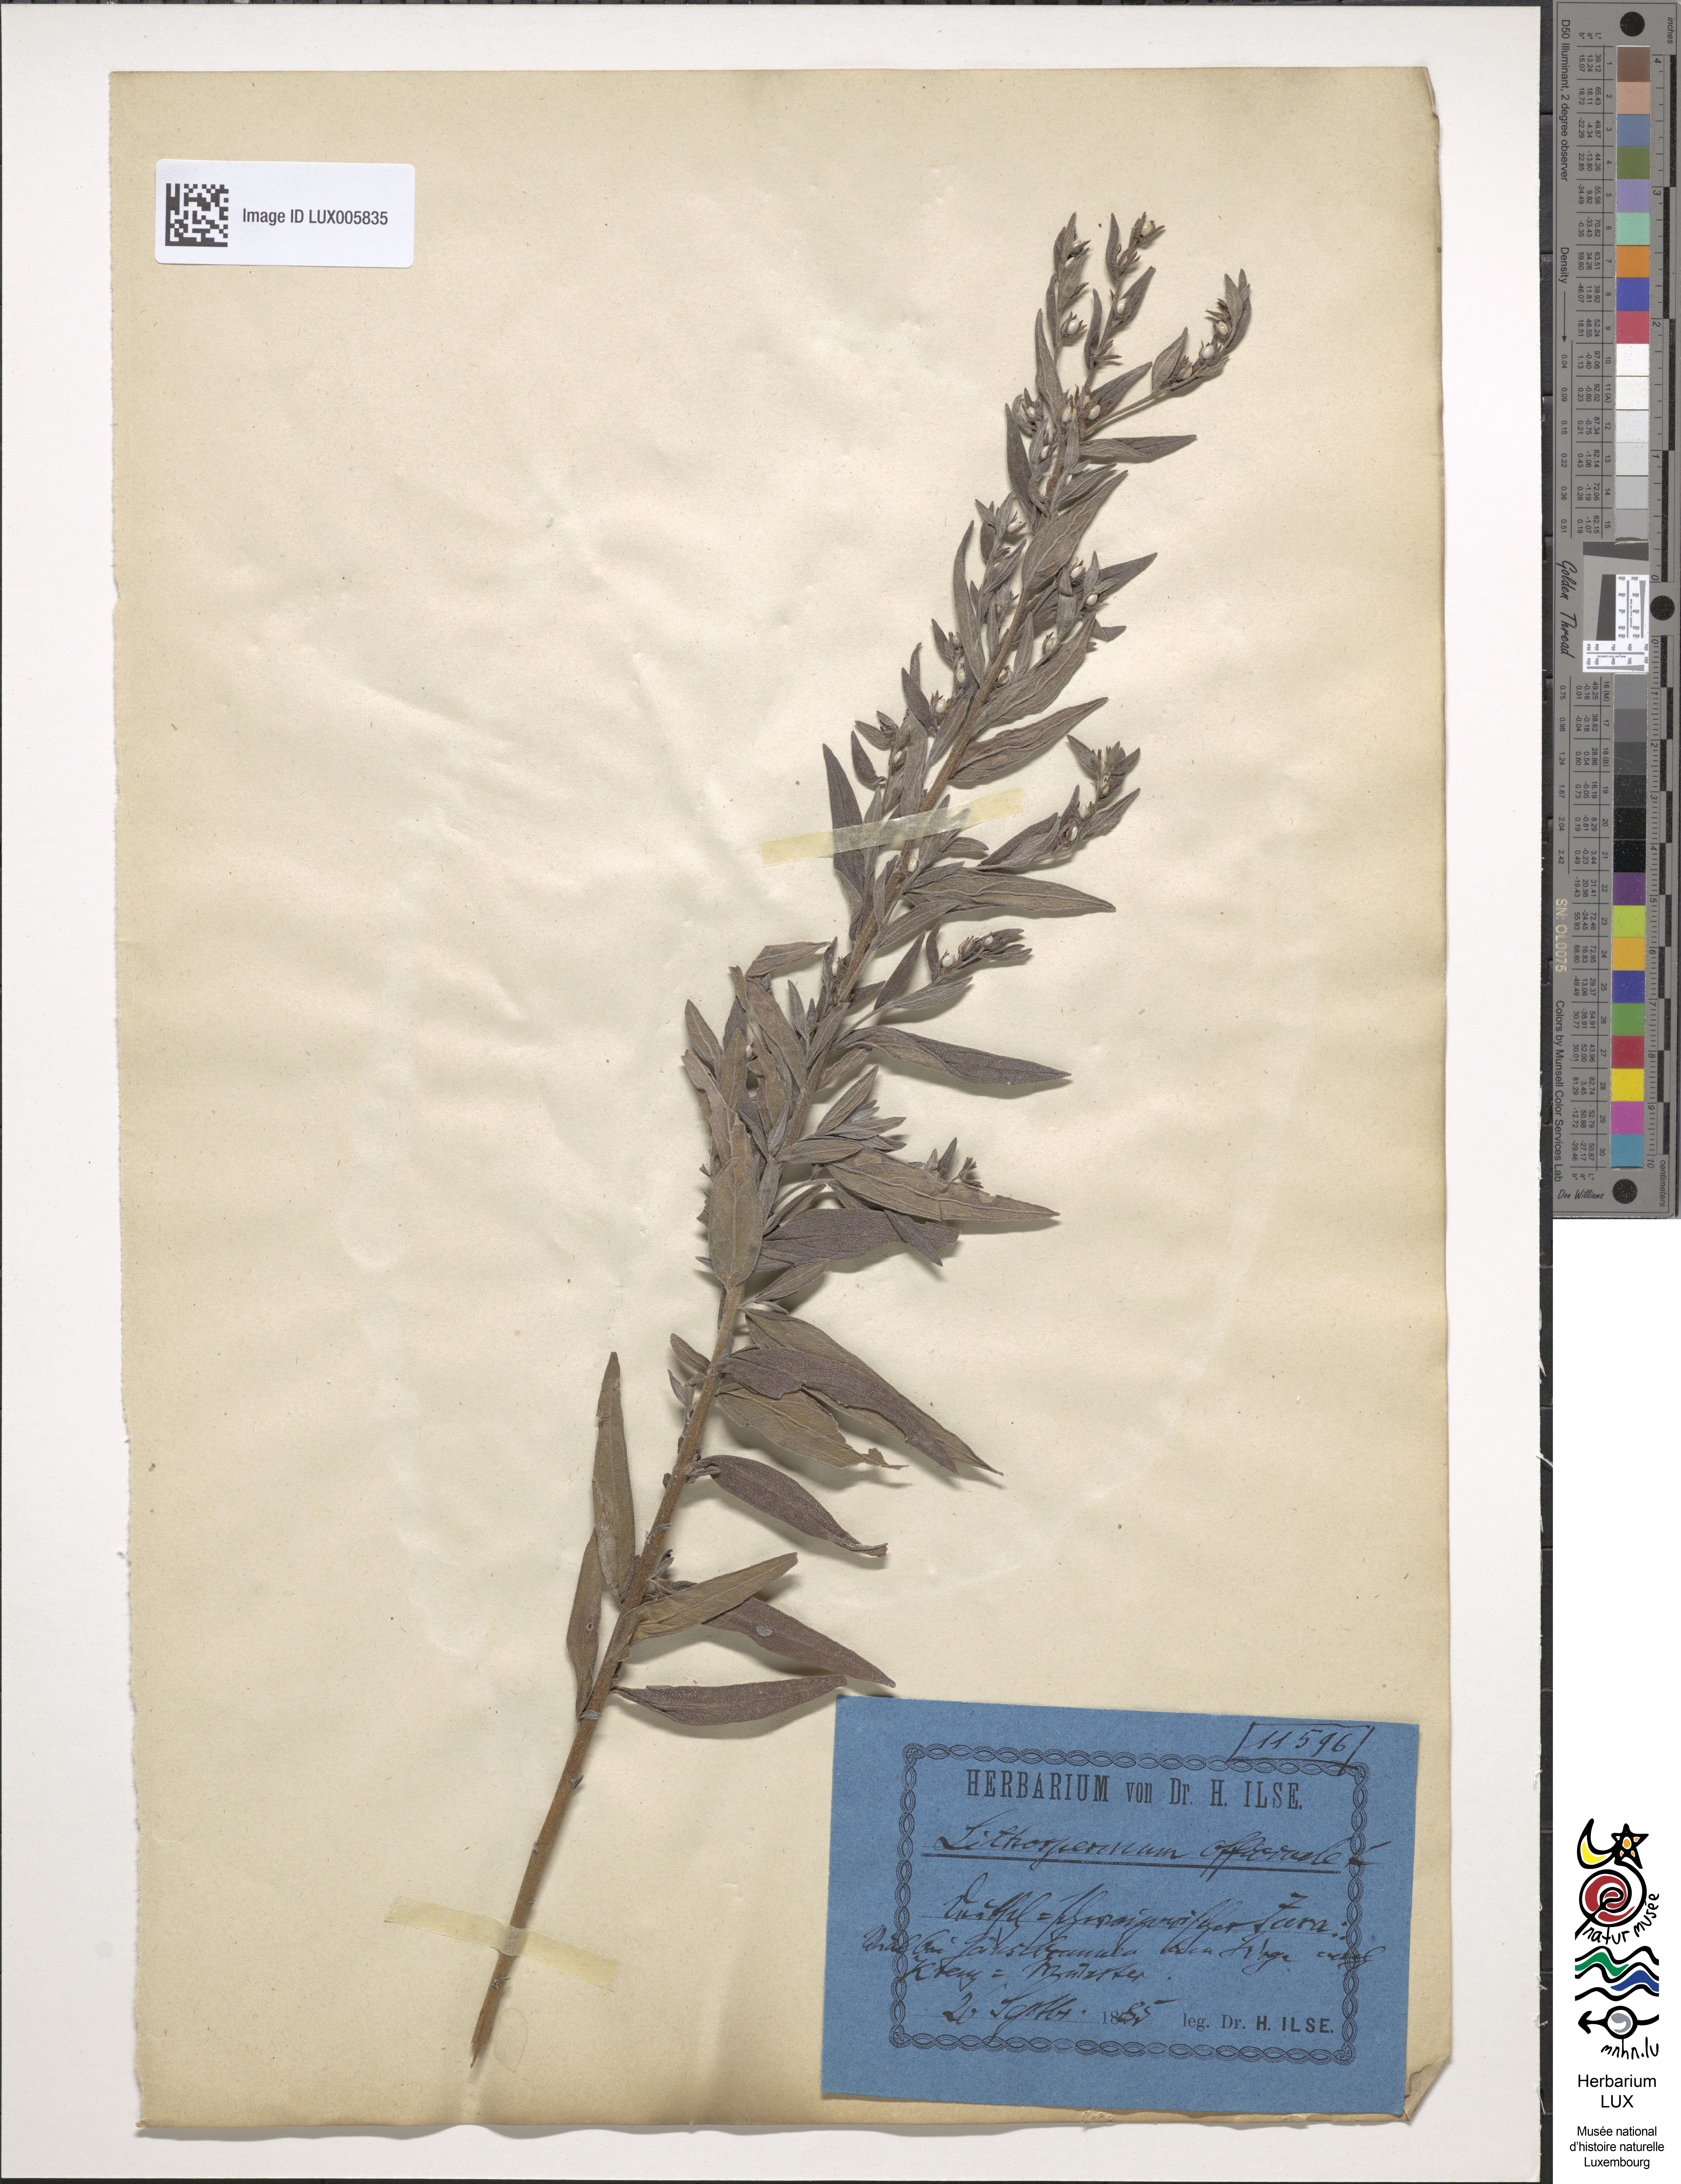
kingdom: Plantae
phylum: Tracheophyta
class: Magnoliopsida
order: Boraginales
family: Boraginaceae
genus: Lithospermum
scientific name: Lithospermum officinale
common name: Common gromwell
